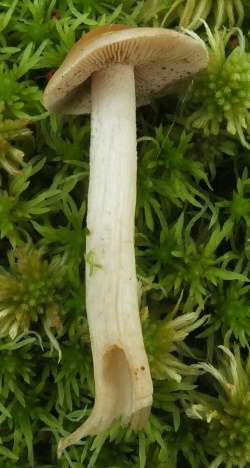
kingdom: Fungi
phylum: Basidiomycota
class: Agaricomycetes
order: Agaricales
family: Hymenogastraceae
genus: Hebeloma
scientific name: Hebeloma leucosarx
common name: højstokket tåreblad
